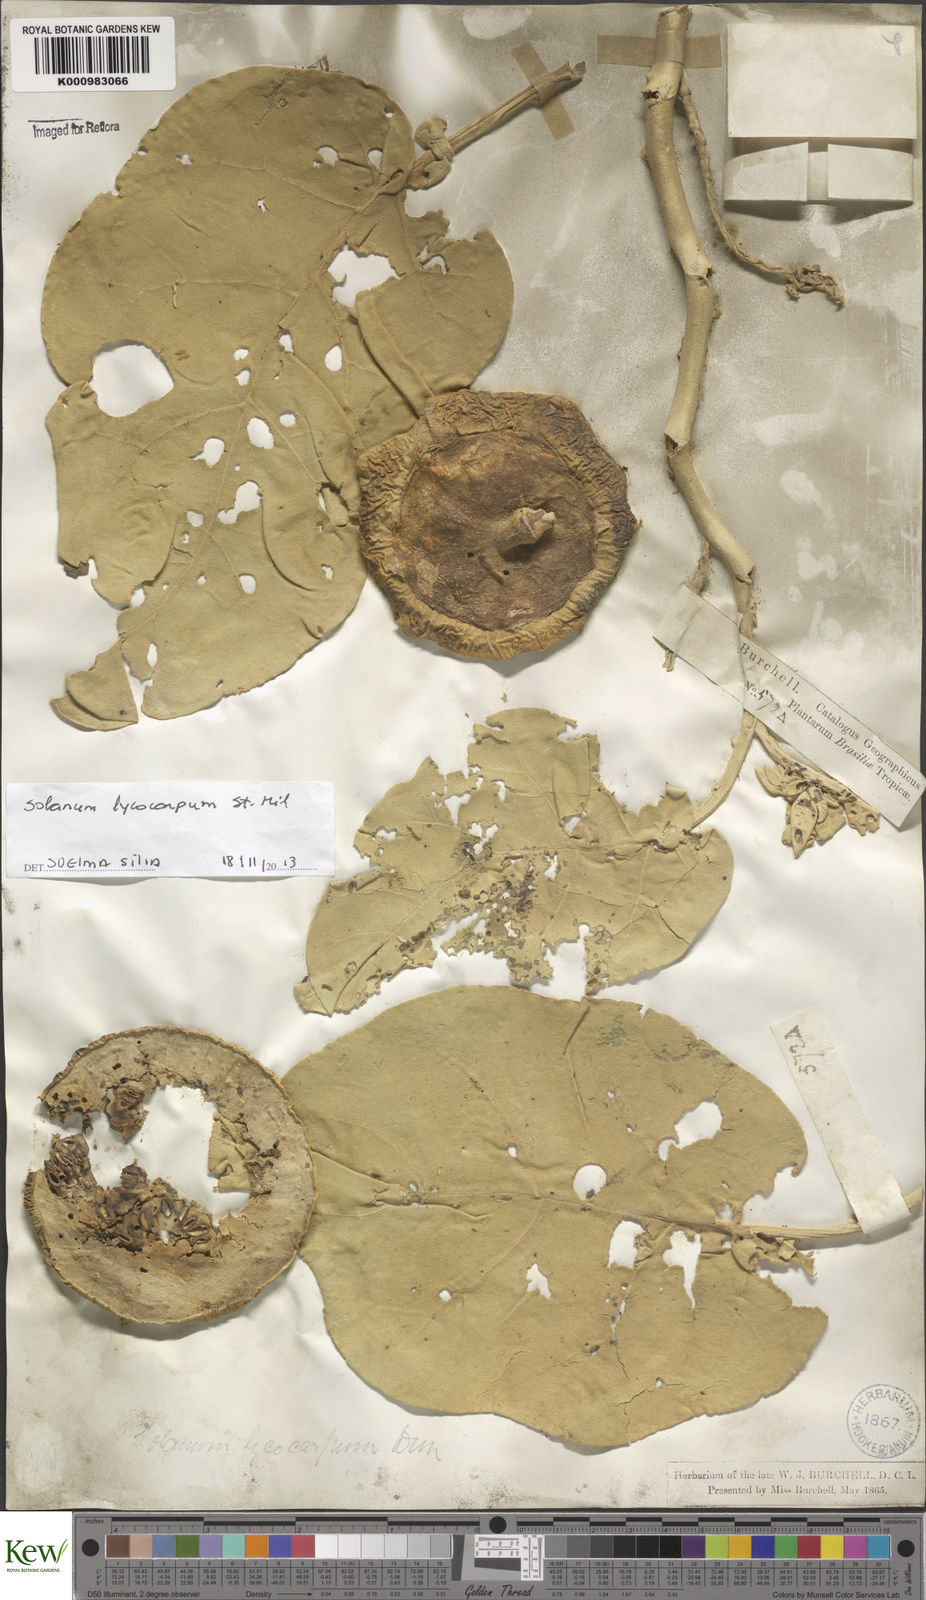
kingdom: Plantae
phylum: Tracheophyta
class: Magnoliopsida
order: Solanales
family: Solanaceae
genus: Solanum
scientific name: Solanum lycocarpum
